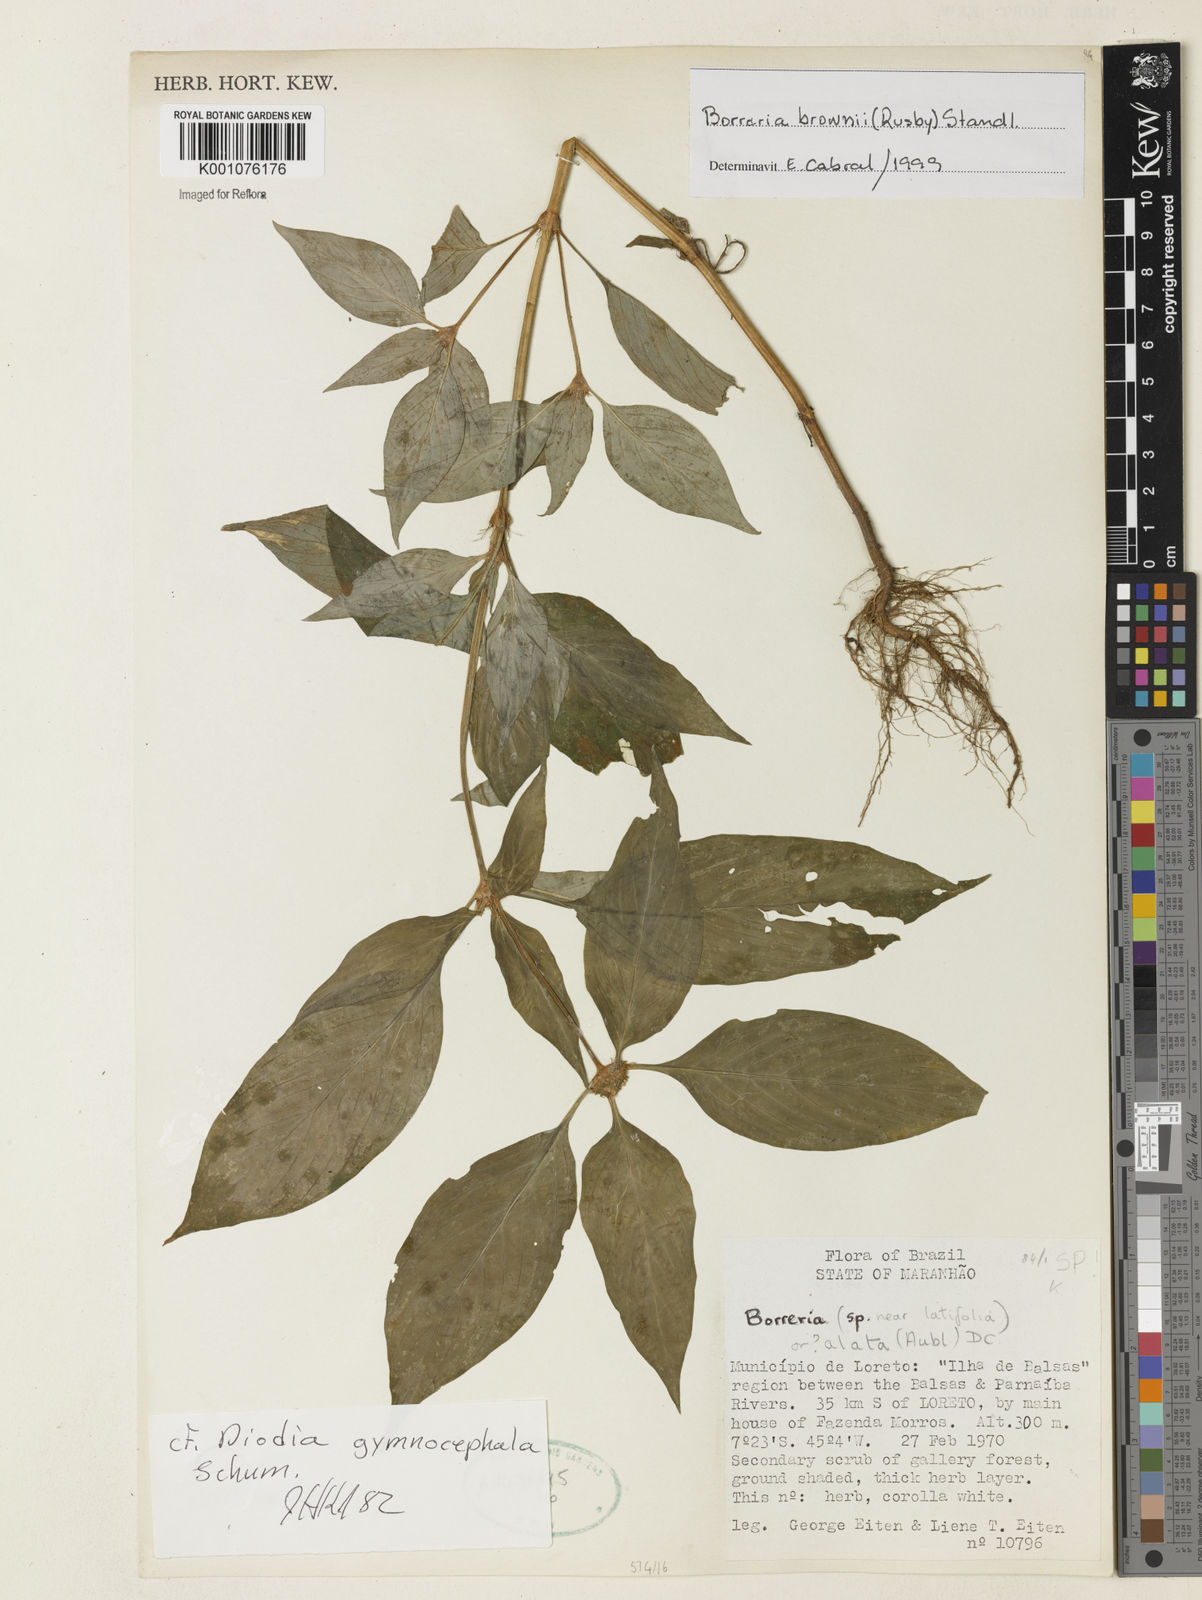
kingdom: Plantae
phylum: Tracheophyta
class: Magnoliopsida
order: Gentianales
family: Rubiaceae
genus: Spermacoce
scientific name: Spermacoce brownii
